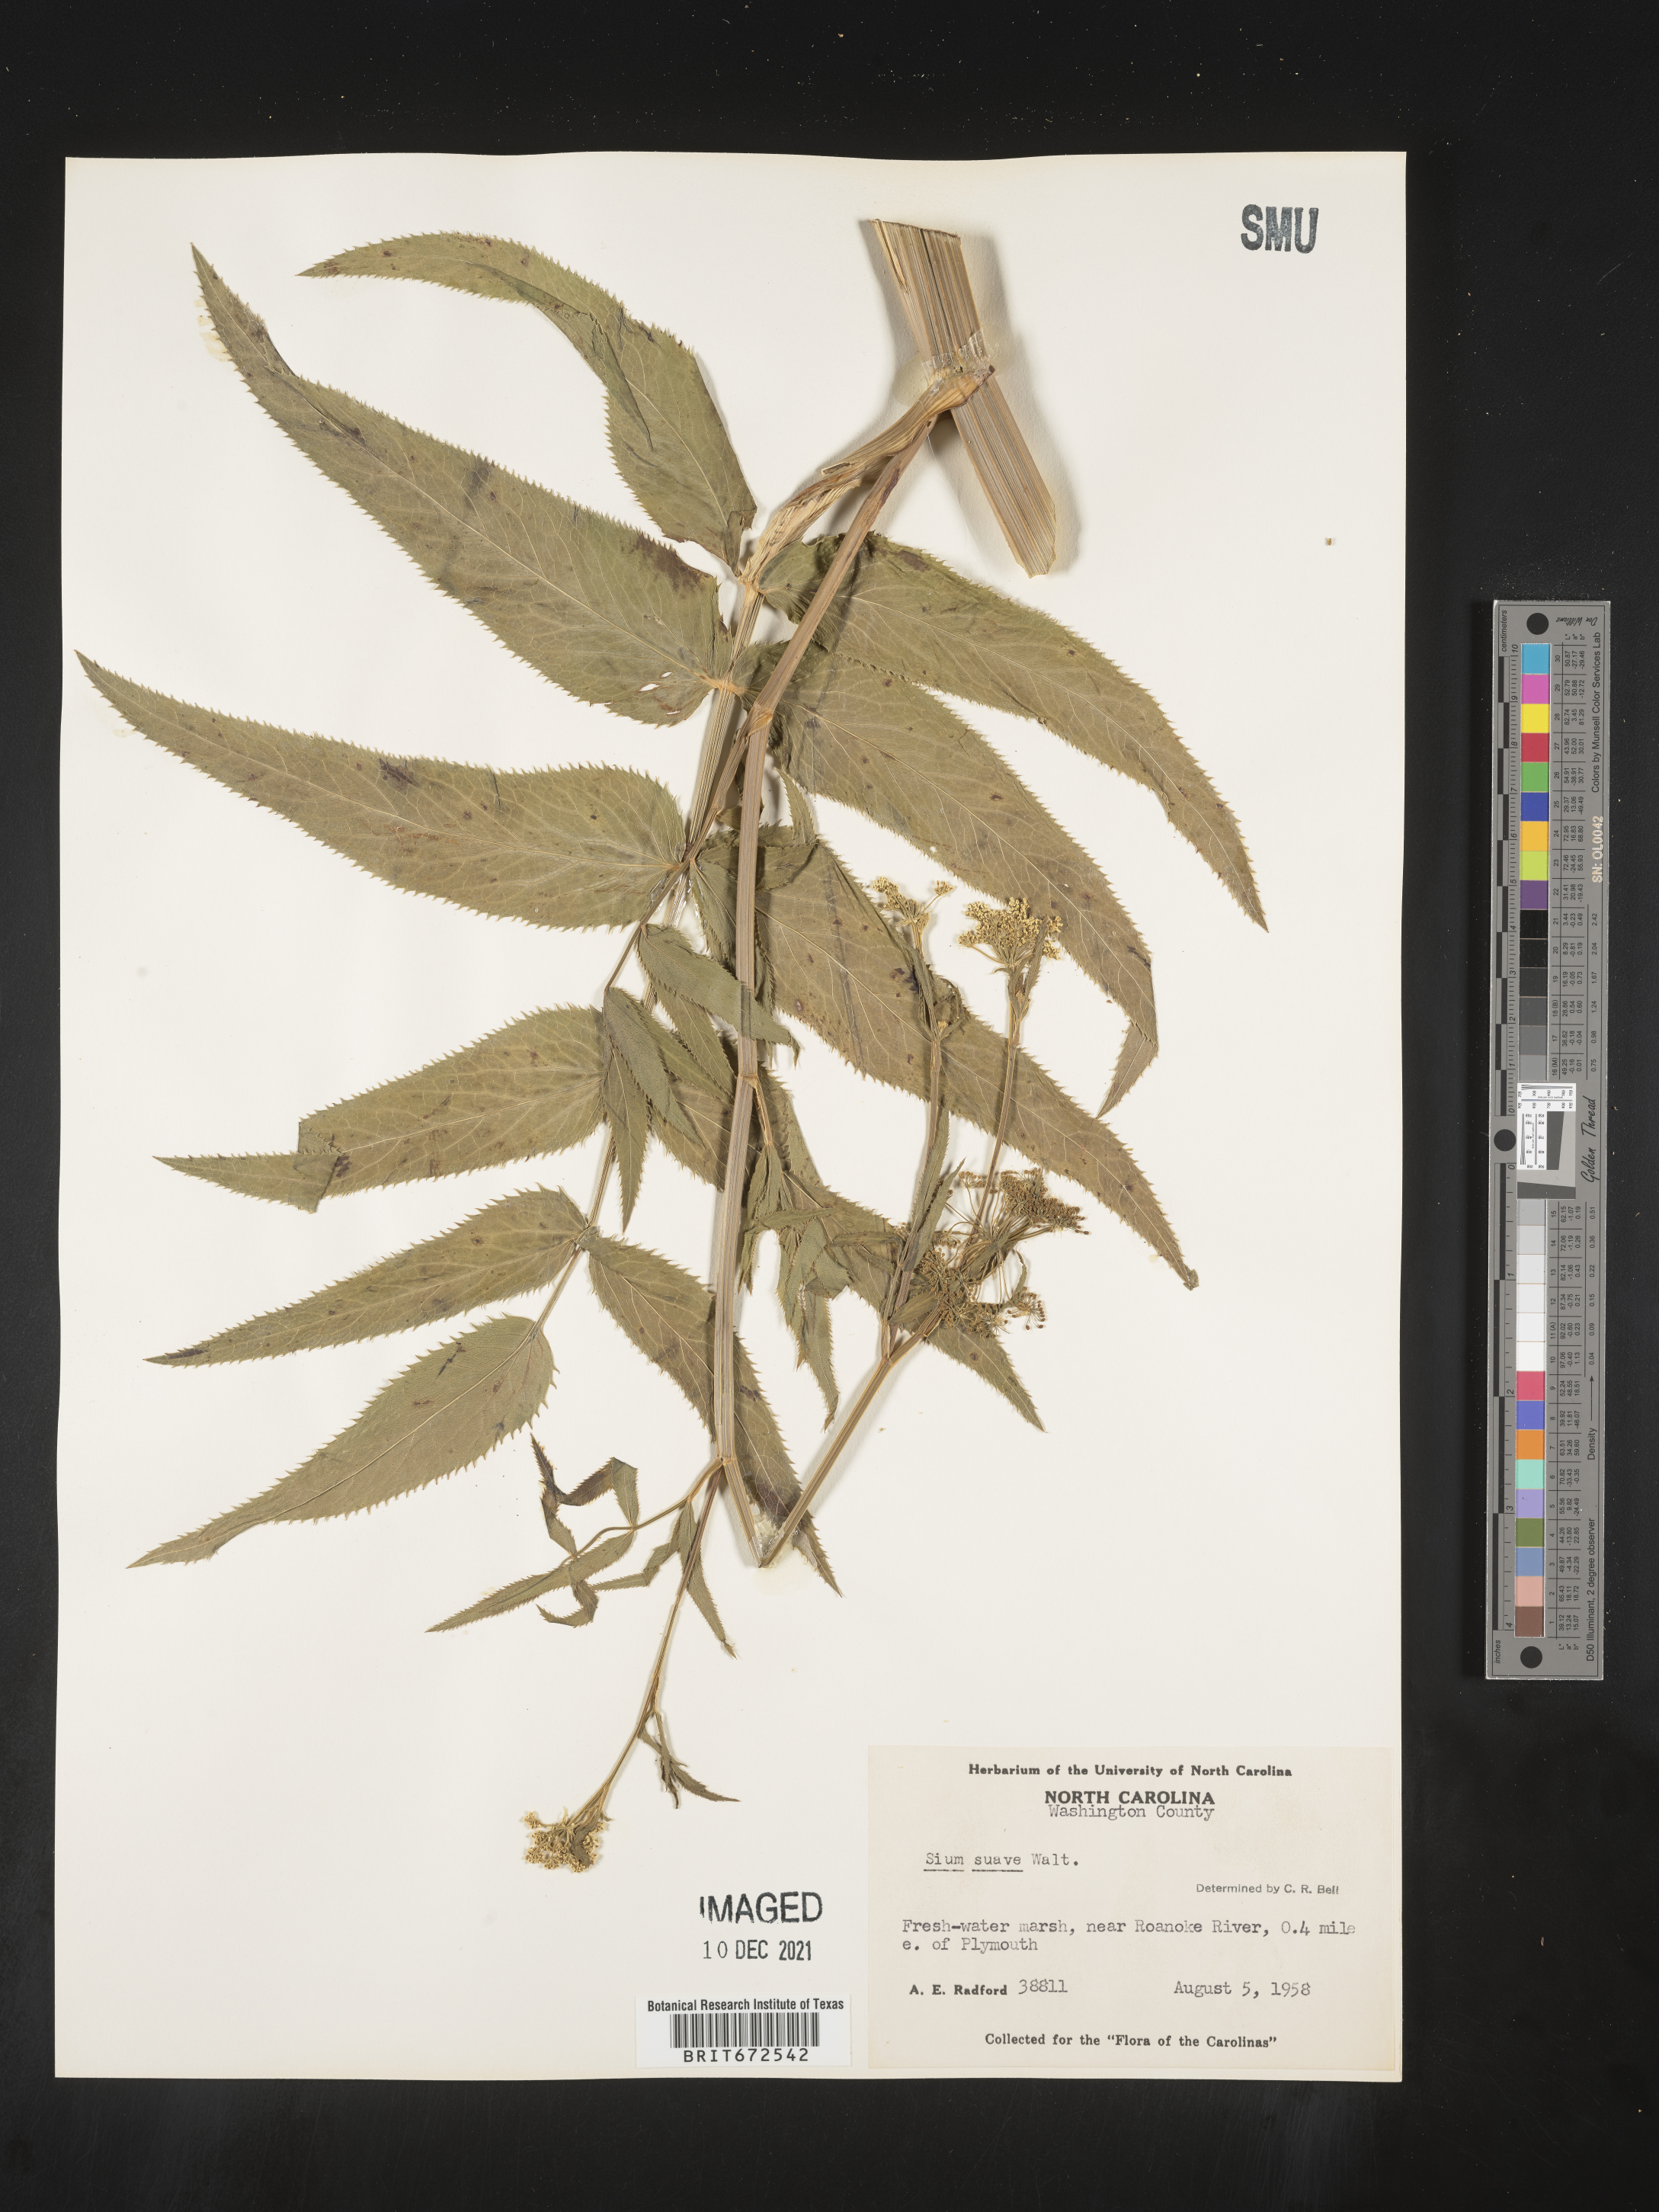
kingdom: Plantae
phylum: Tracheophyta
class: Magnoliopsida
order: Apiales
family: Apiaceae
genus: Sium
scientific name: Sium suave
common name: Hemlock water-parsnip
